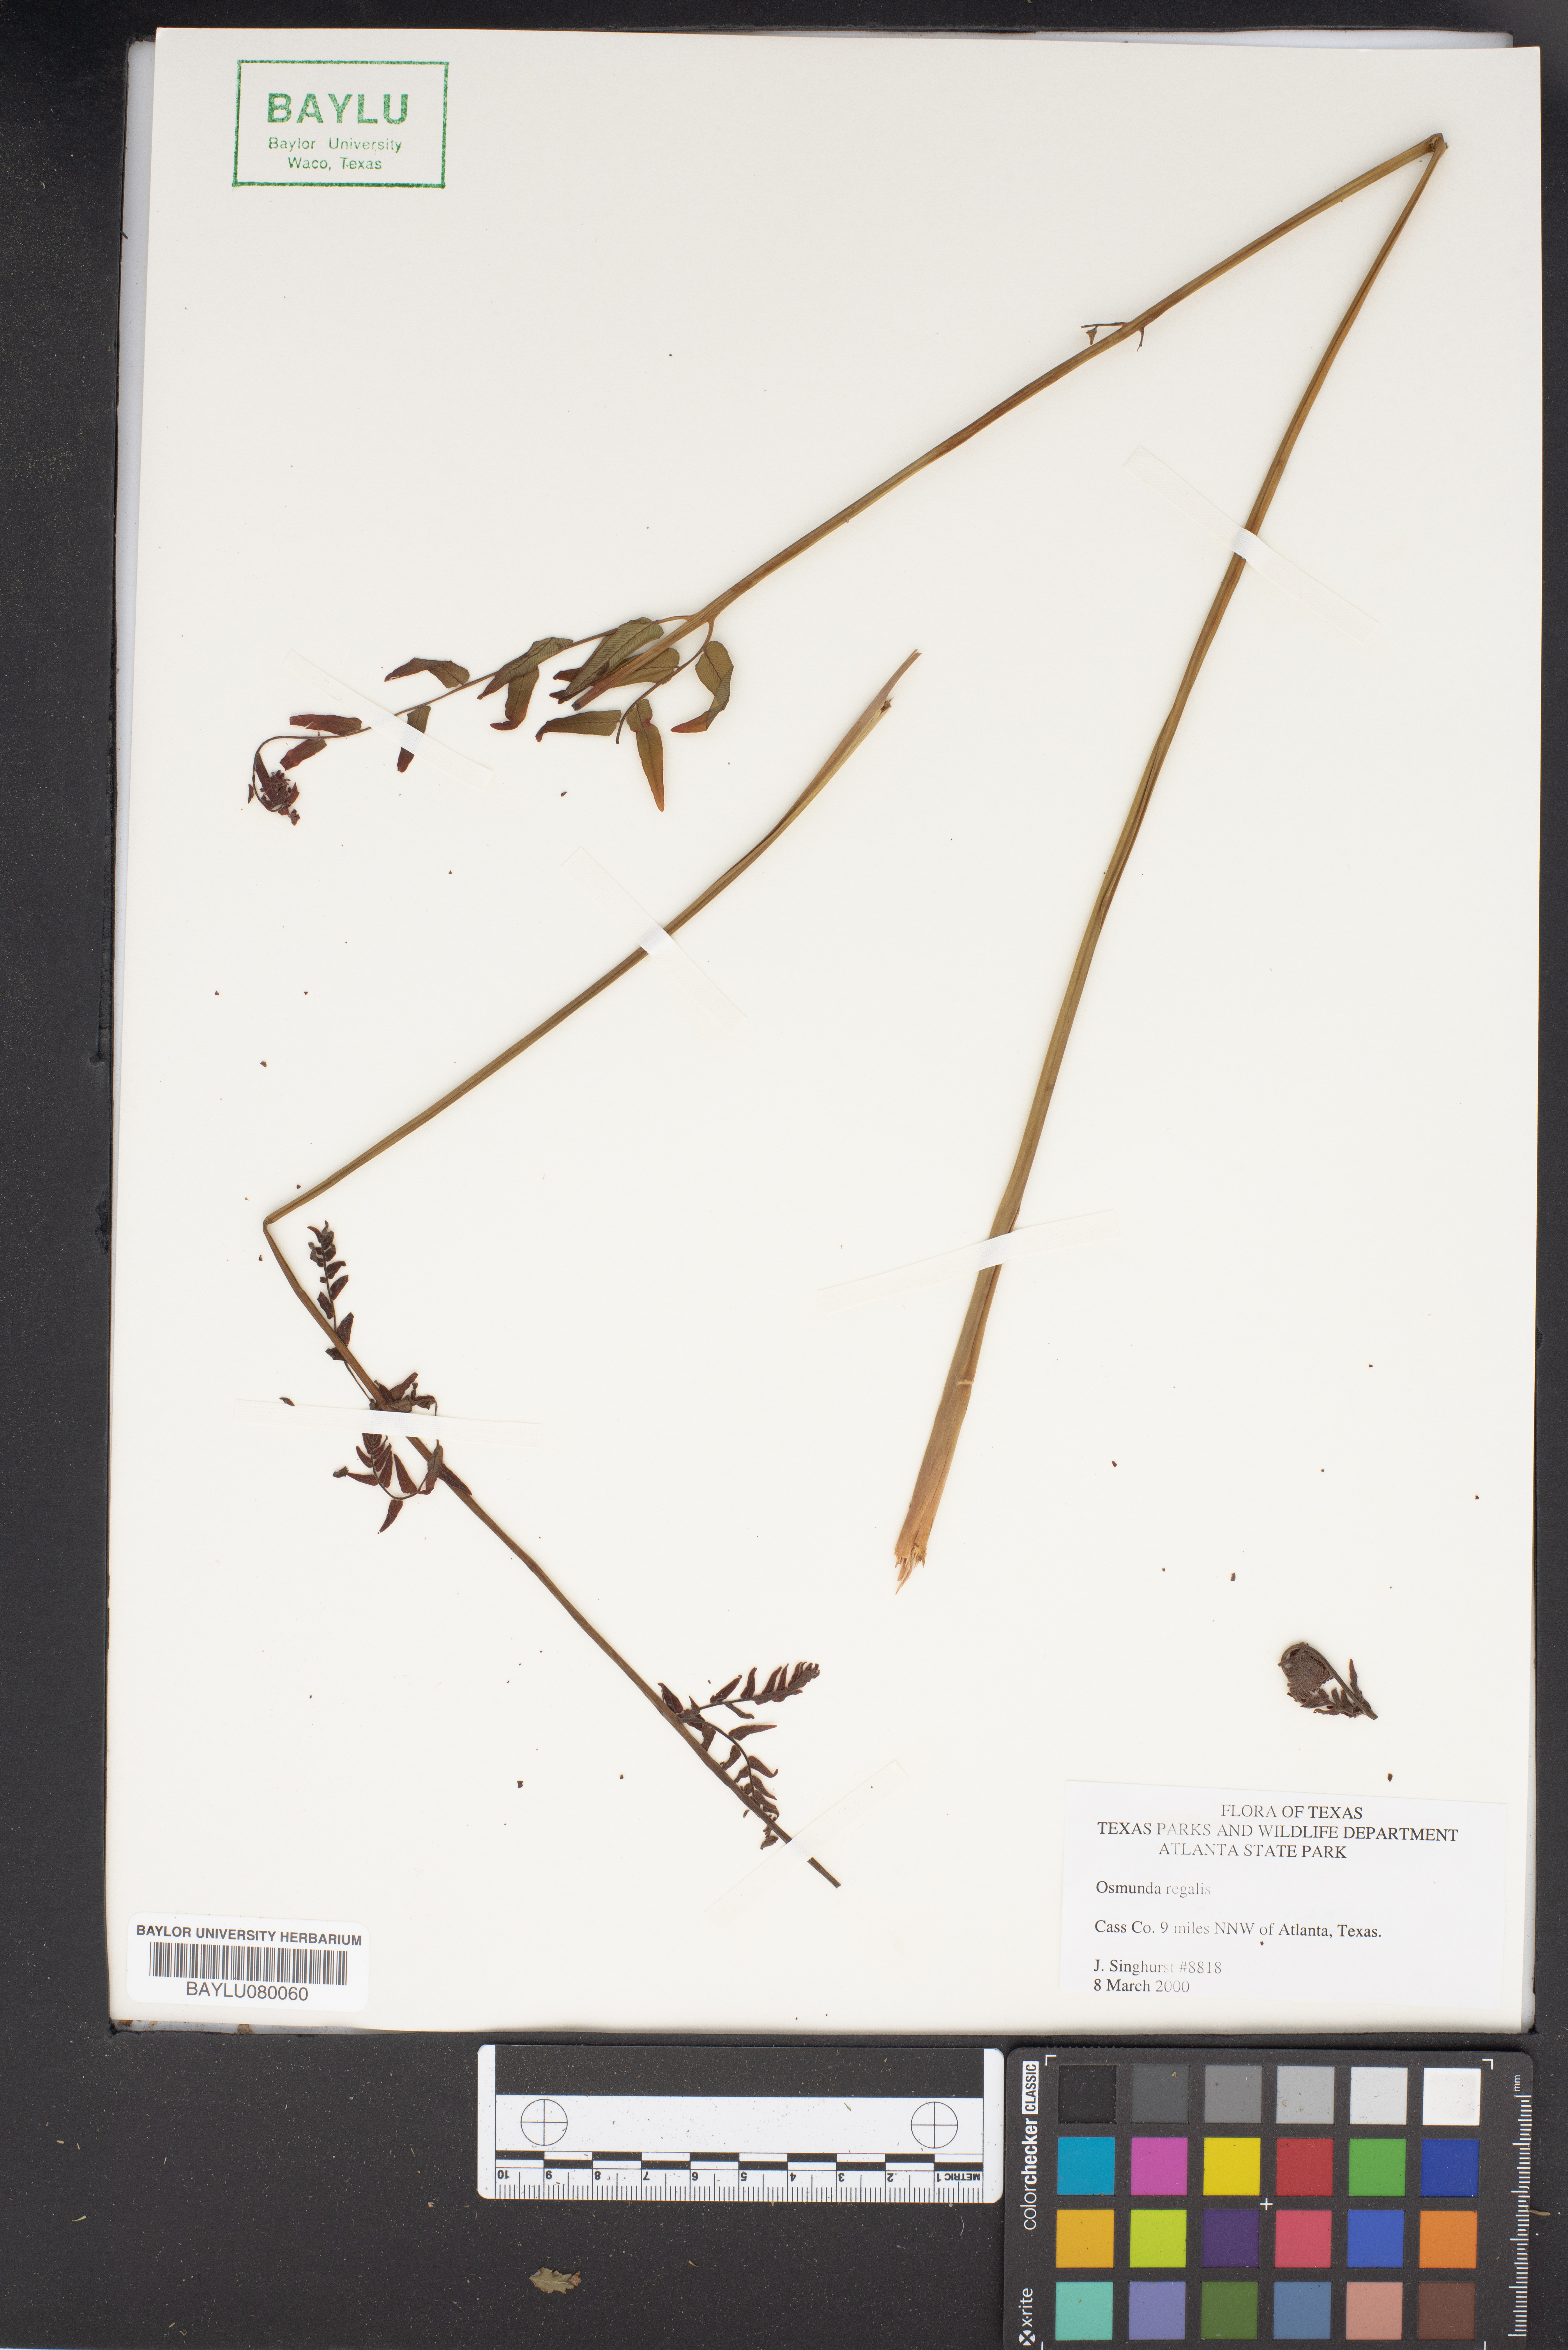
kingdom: Plantae
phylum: Tracheophyta
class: Polypodiopsida
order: Osmundales
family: Osmundaceae
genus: Osmunda
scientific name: Osmunda regalis
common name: Royal fern
